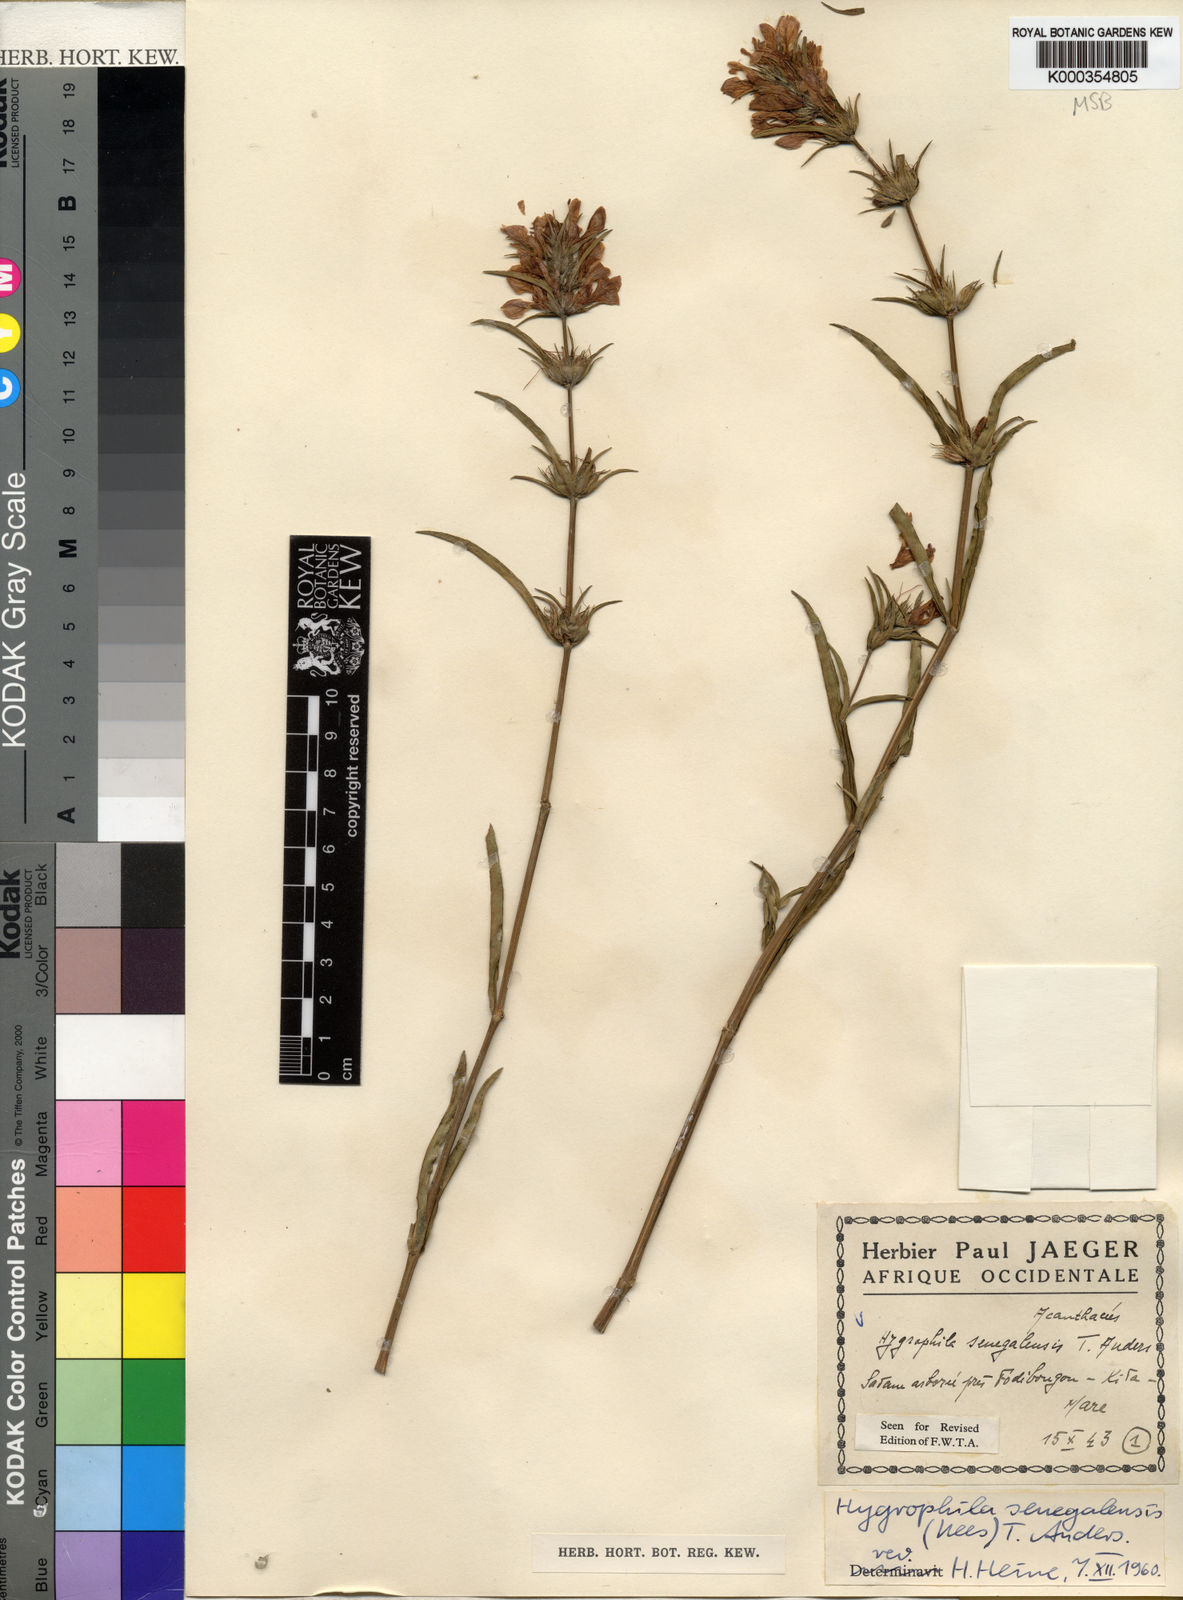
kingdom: Plantae
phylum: Tracheophyta
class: Magnoliopsida
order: Lamiales
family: Acanthaceae
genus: Hygrophila
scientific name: Hygrophila micrantha
